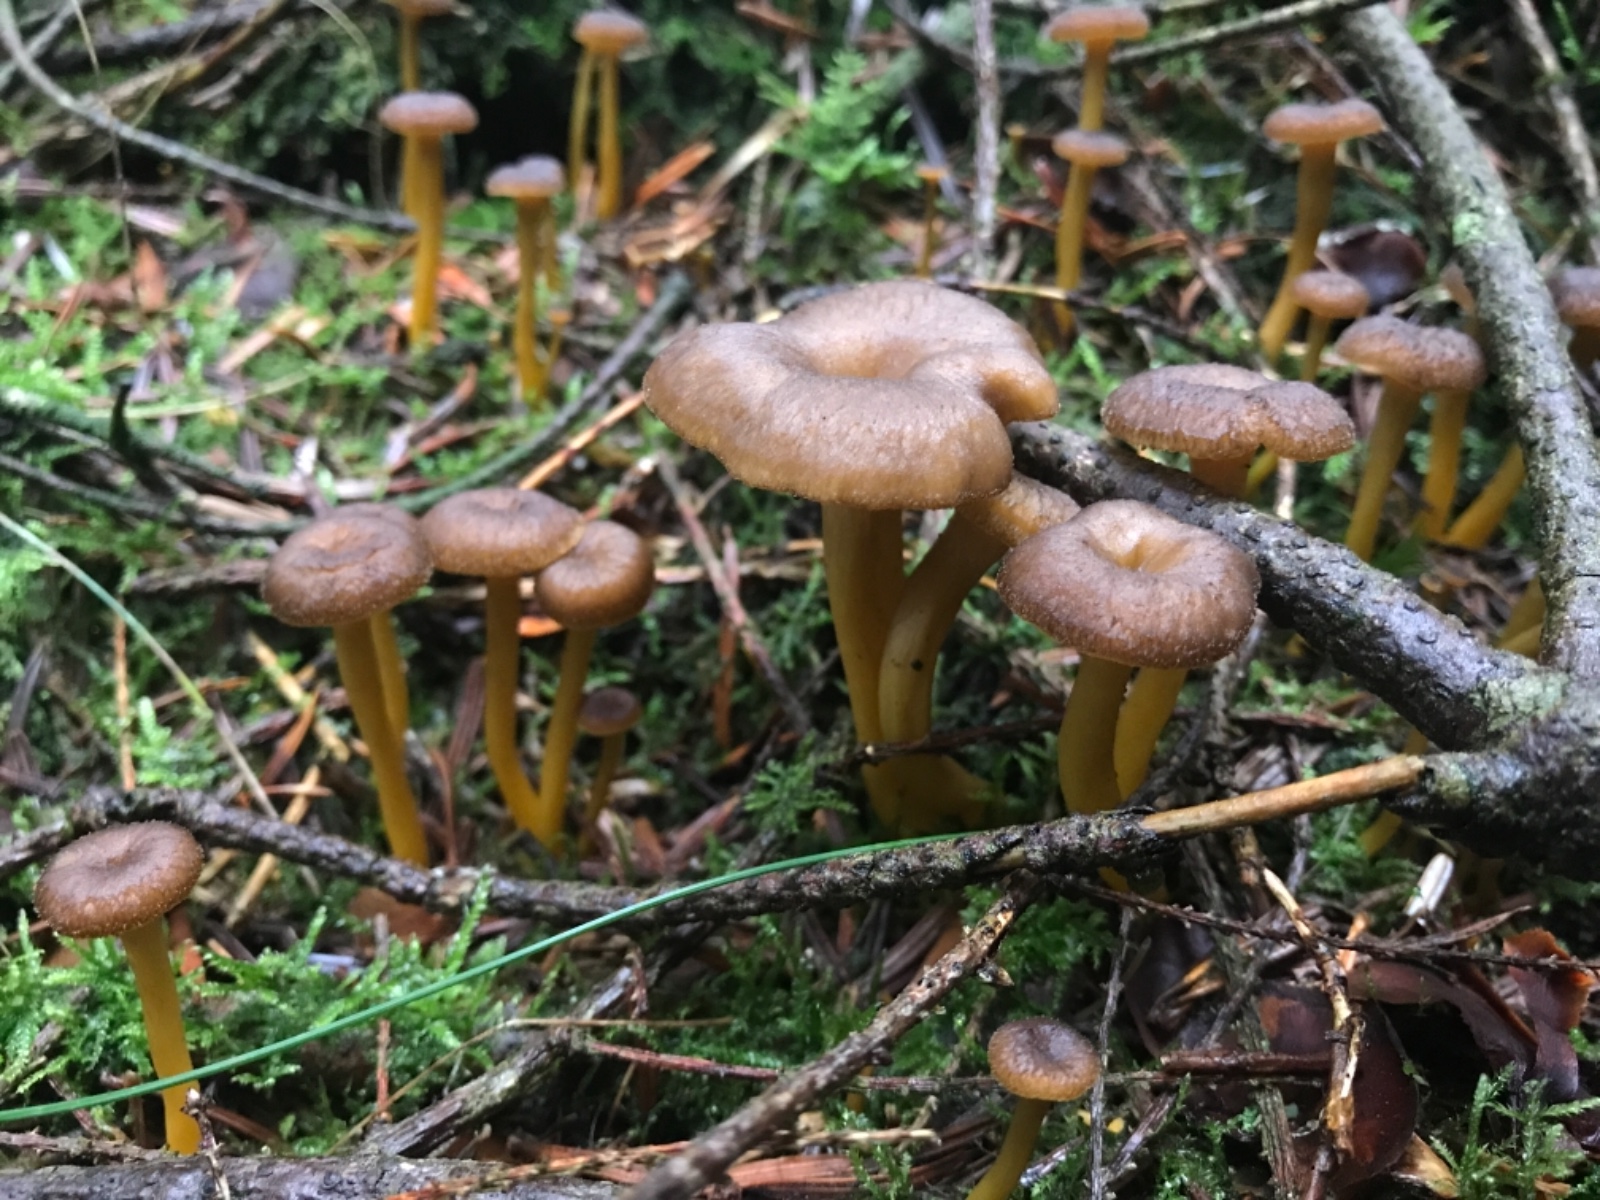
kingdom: Fungi
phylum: Basidiomycota
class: Agaricomycetes
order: Cantharellales
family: Hydnaceae
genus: Craterellus
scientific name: Craterellus tubaeformis
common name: tragt-kantarel
